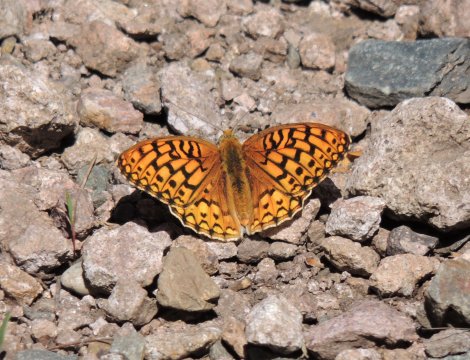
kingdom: Animalia
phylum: Arthropoda
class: Insecta
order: Lepidoptera
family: Nymphalidae
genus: Speyeria
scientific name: Speyeria callippe
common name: Callippe Fritillary
